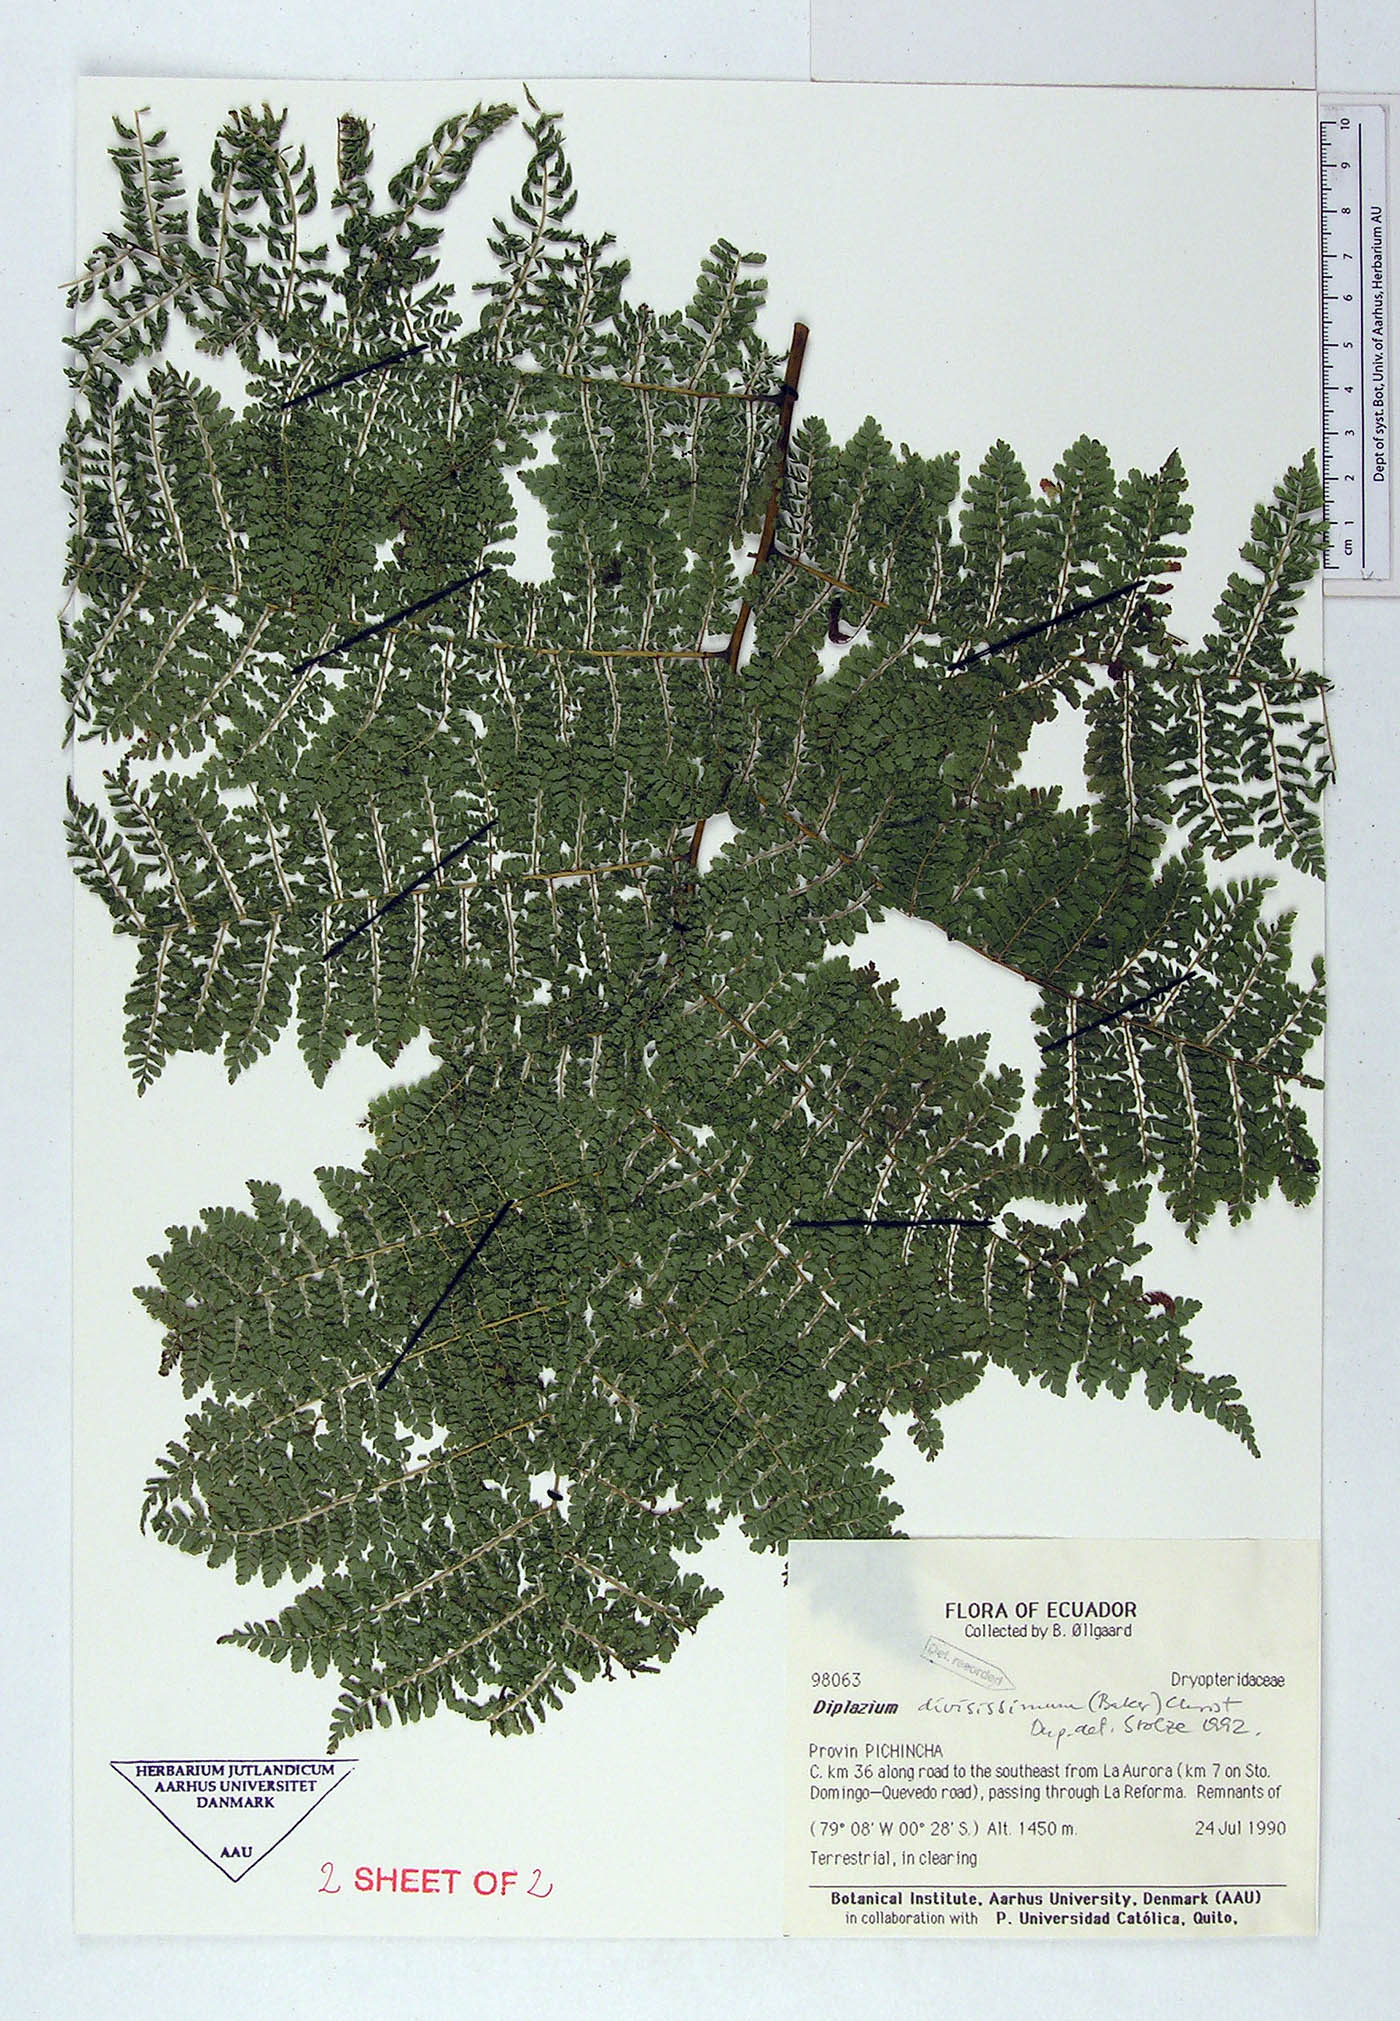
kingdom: Plantae
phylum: Tracheophyta
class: Polypodiopsida
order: Polypodiales
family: Athyriaceae
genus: Diplazium
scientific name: Diplazium divisissimum
